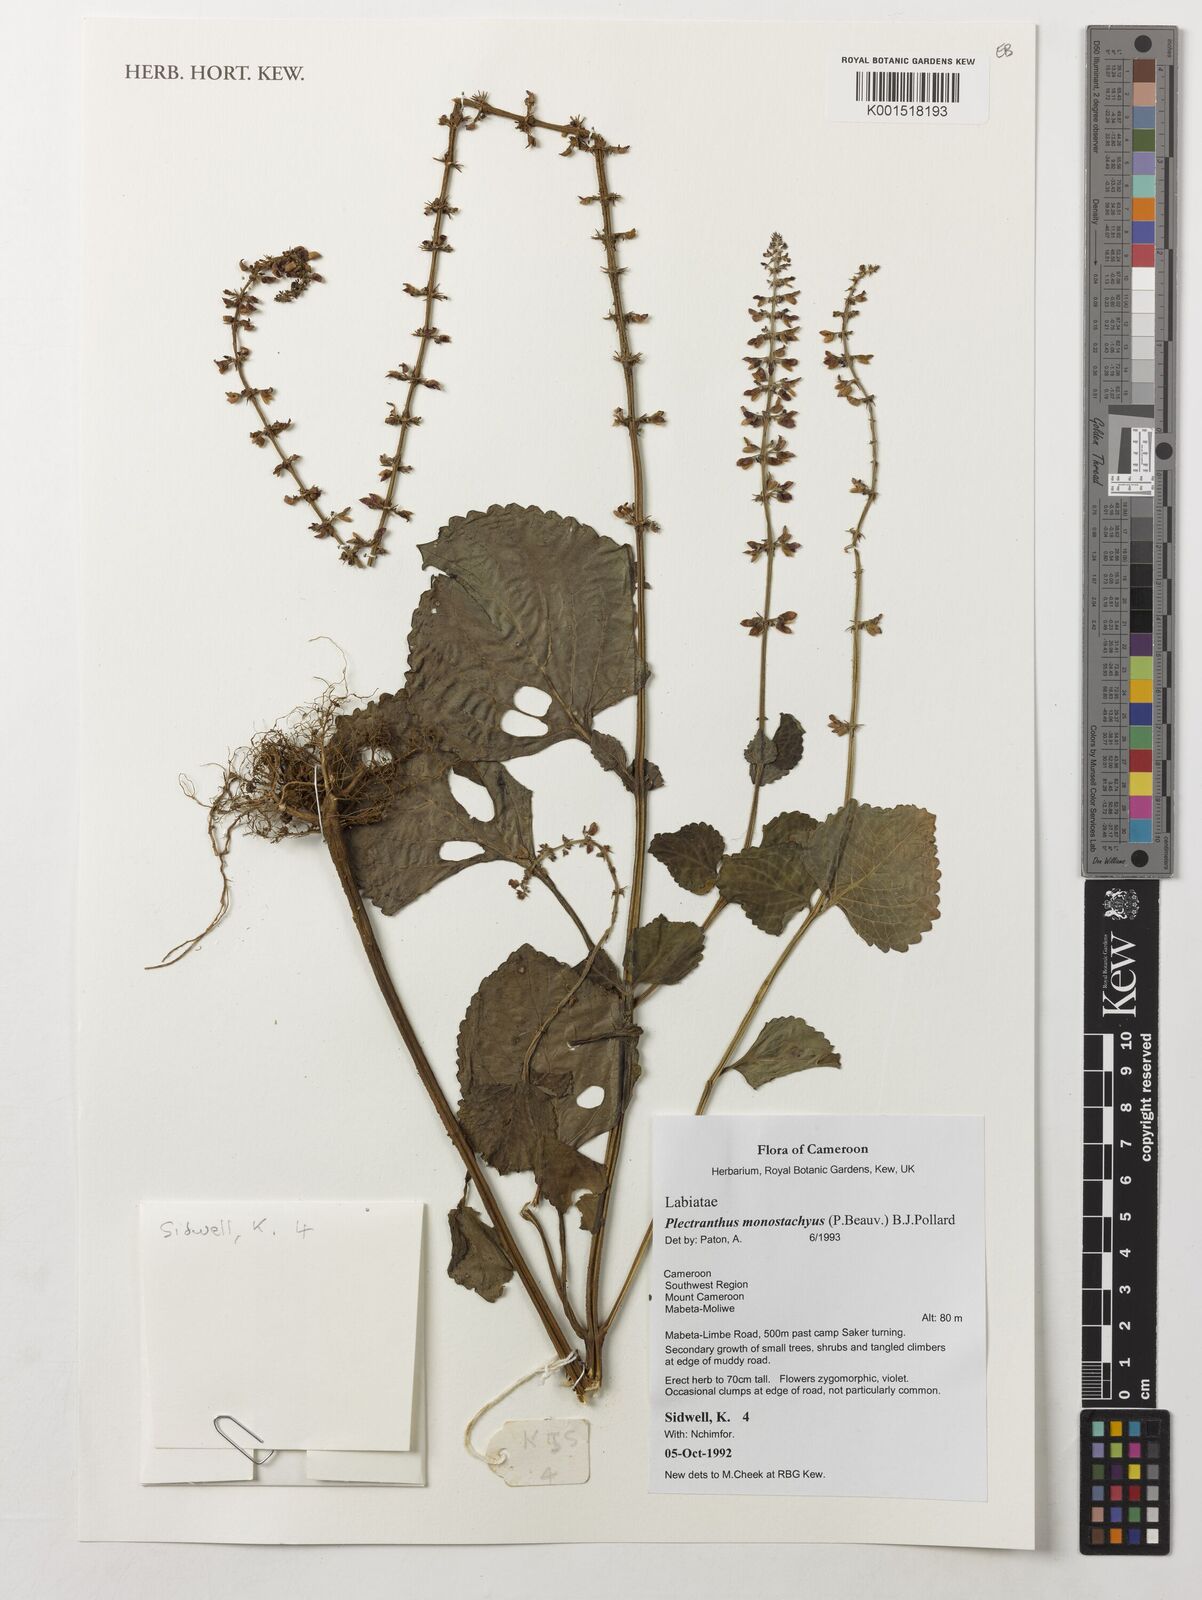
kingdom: Plantae
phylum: Tracheophyta
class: Magnoliopsida
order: Lamiales
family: Lamiaceae
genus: Coleus
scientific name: Coleus monostachyus
